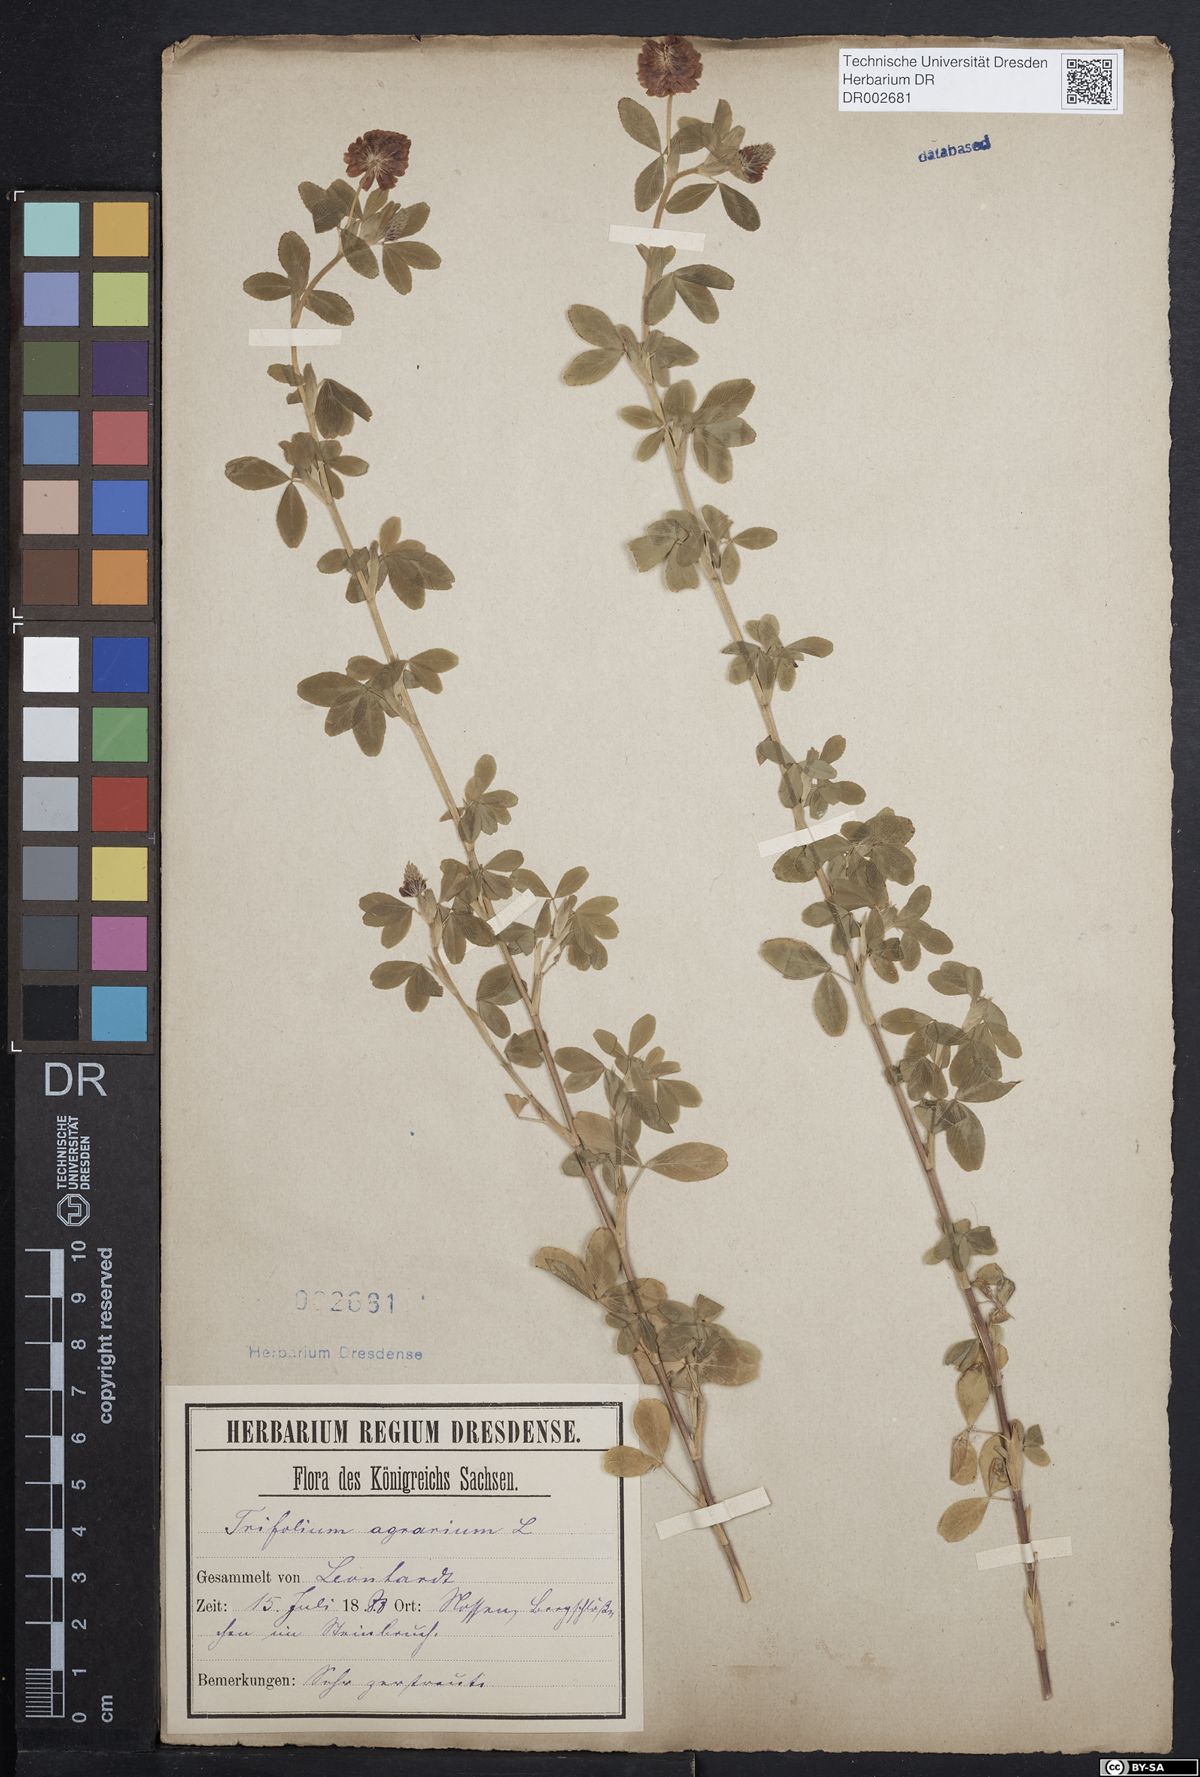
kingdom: Plantae
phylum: Tracheophyta
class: Magnoliopsida
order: Fabales
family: Fabaceae
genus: Trifolium
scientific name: Trifolium aureum
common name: Golden clover
